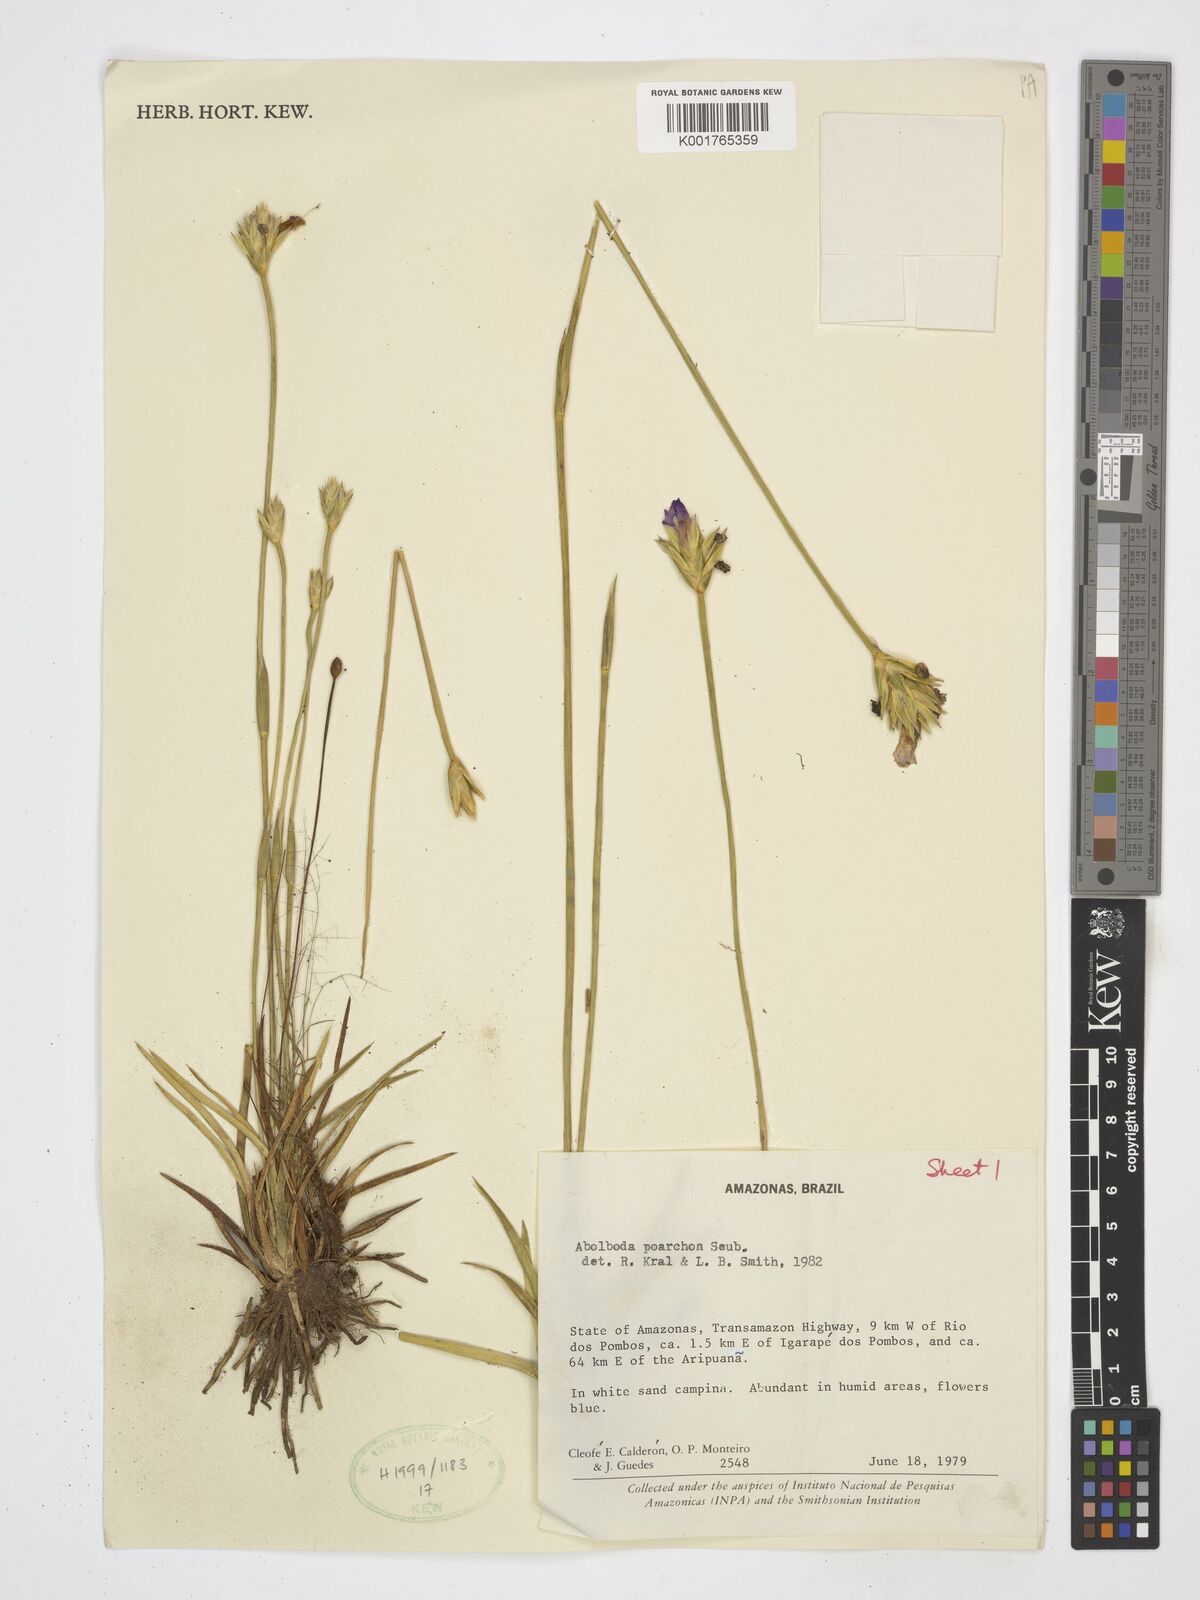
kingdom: Plantae
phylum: Tracheophyta
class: Liliopsida
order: Poales
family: Xyridaceae
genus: Abolboda
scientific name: Abolboda poarchon
